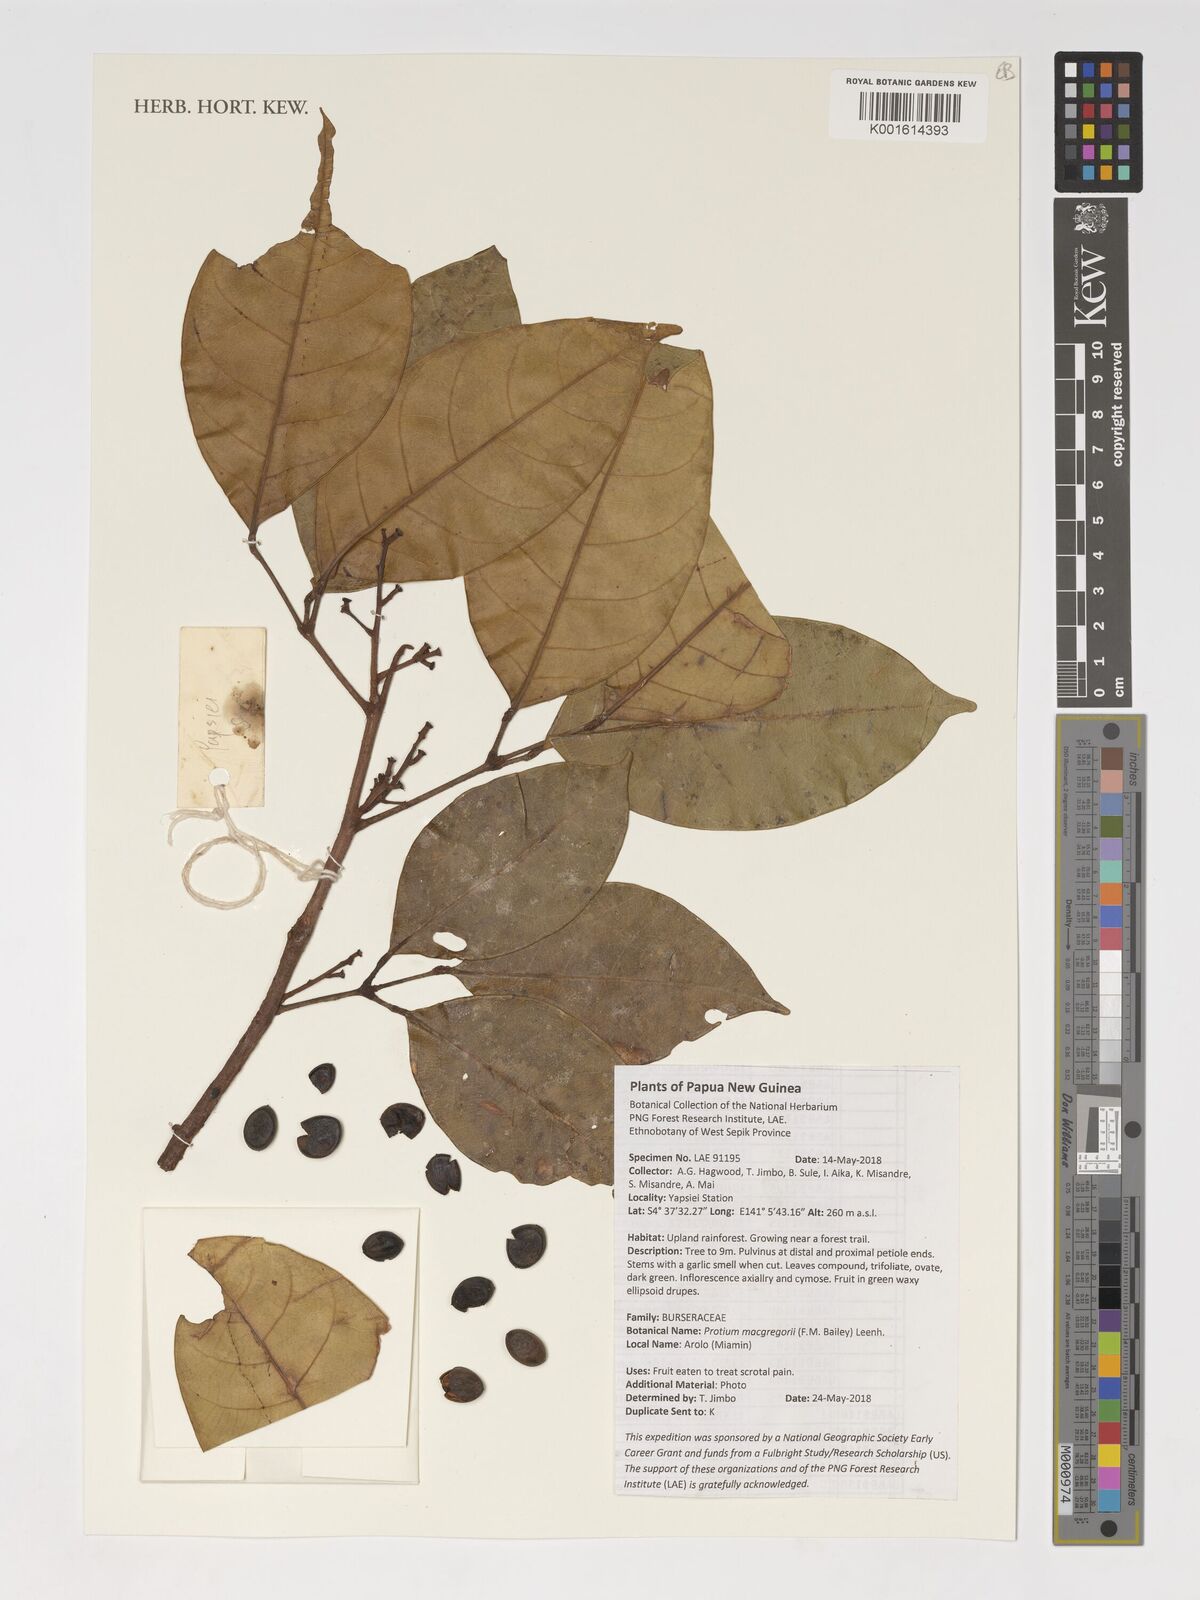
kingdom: Plantae
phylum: Tracheophyta
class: Magnoliopsida
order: Sapindales
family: Burseraceae
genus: Protium
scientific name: Protium macgregorii
